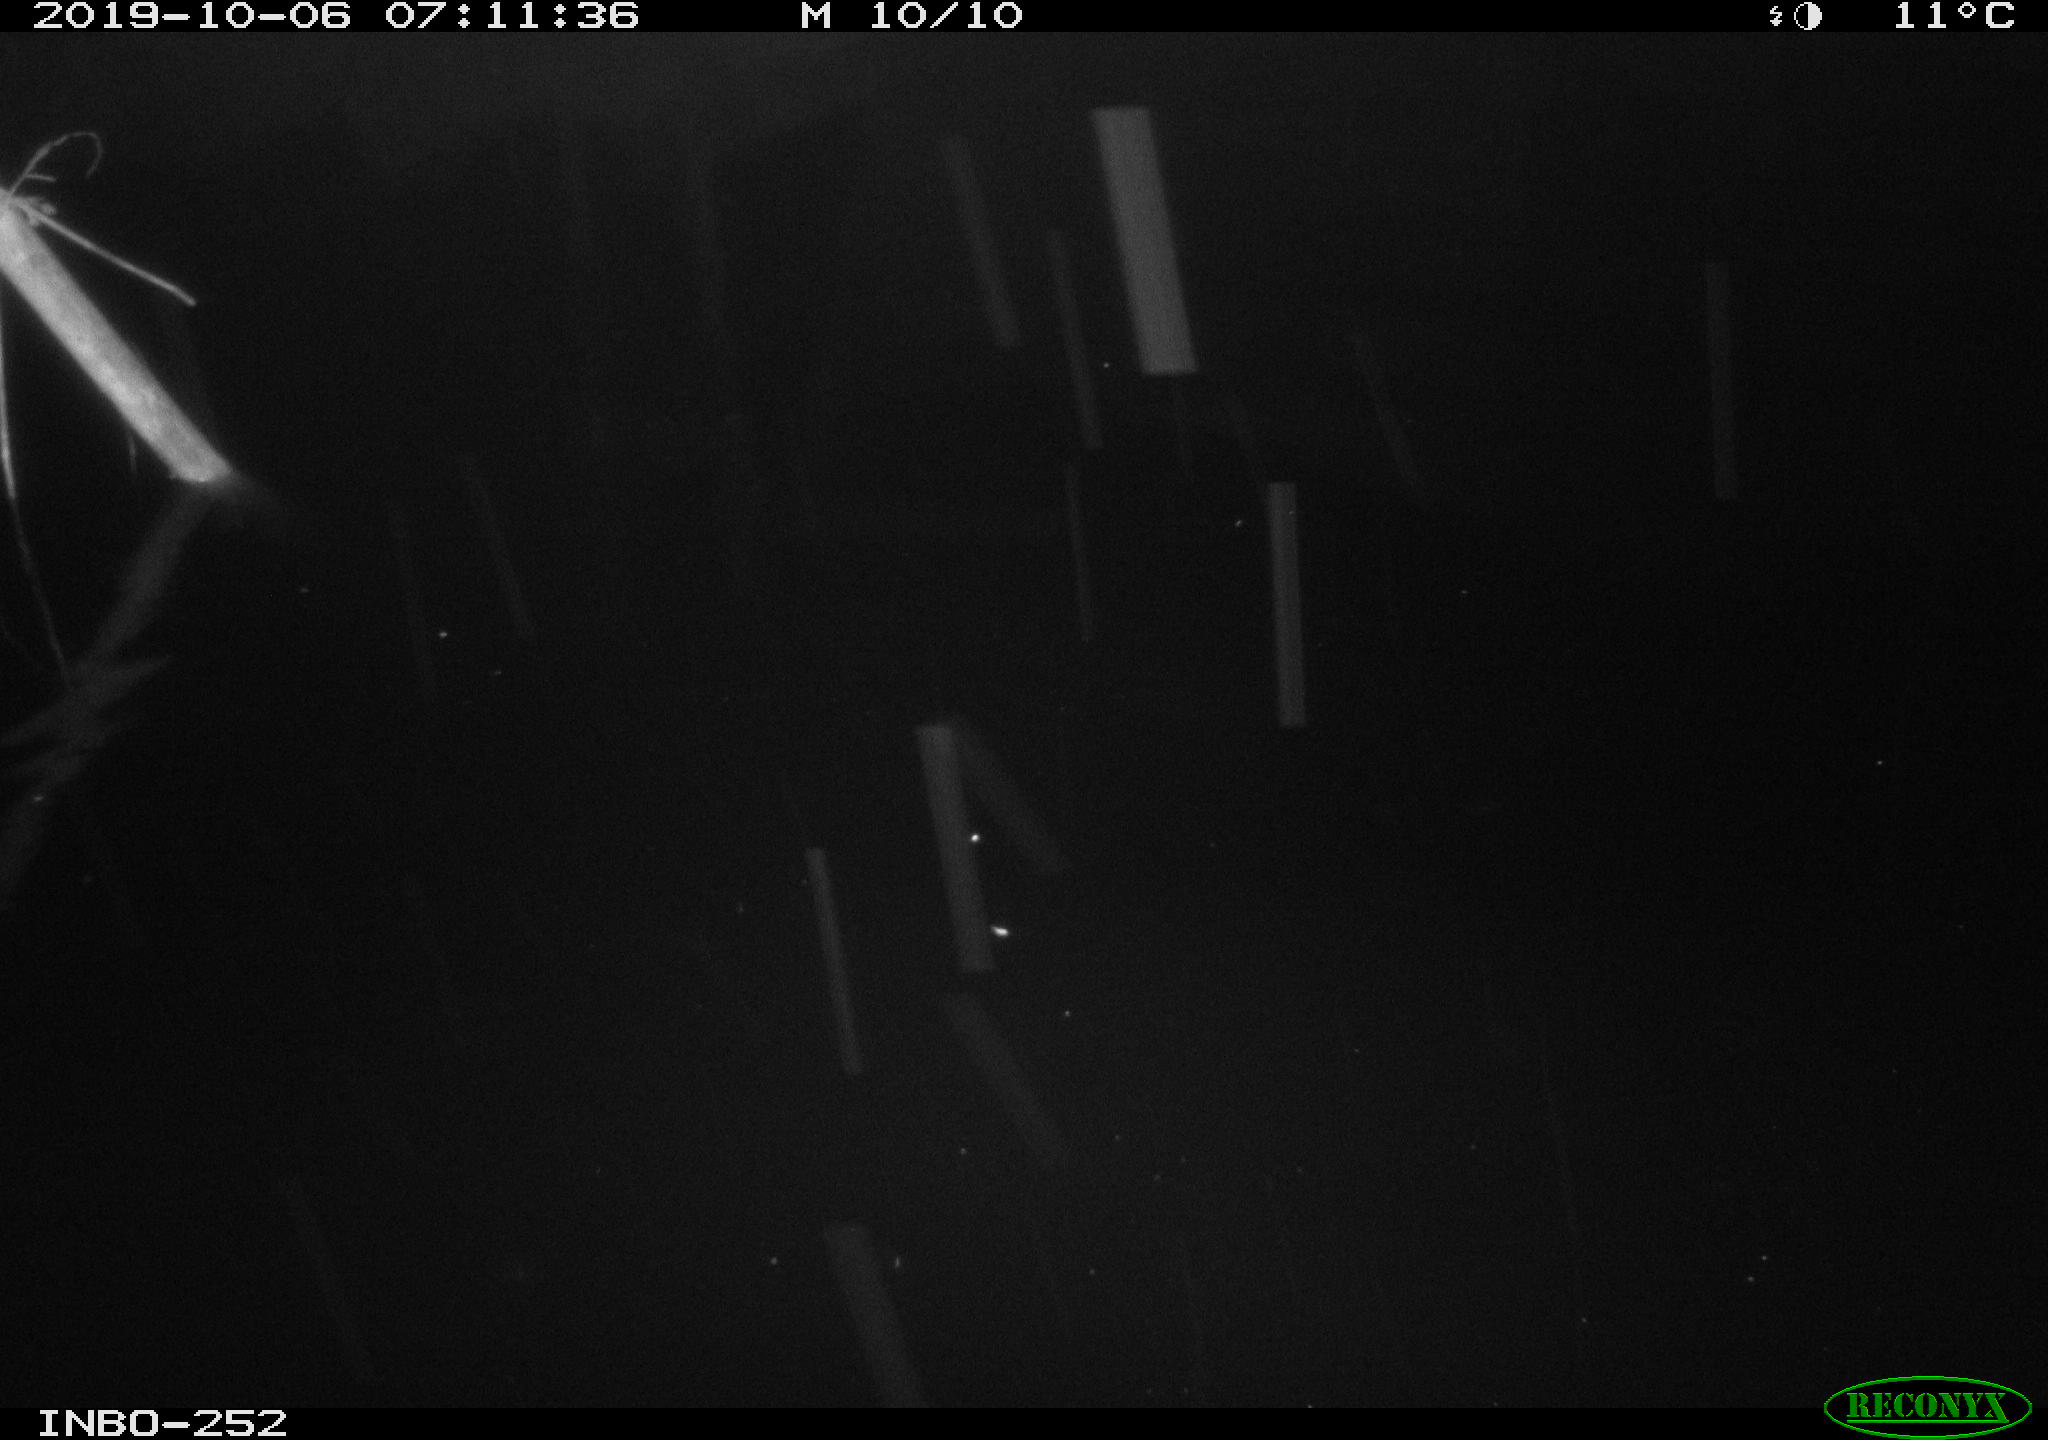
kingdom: Animalia
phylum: Chordata
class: Aves
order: Anseriformes
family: Anatidae
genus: Anas
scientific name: Anas platyrhynchos
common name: Mallard
